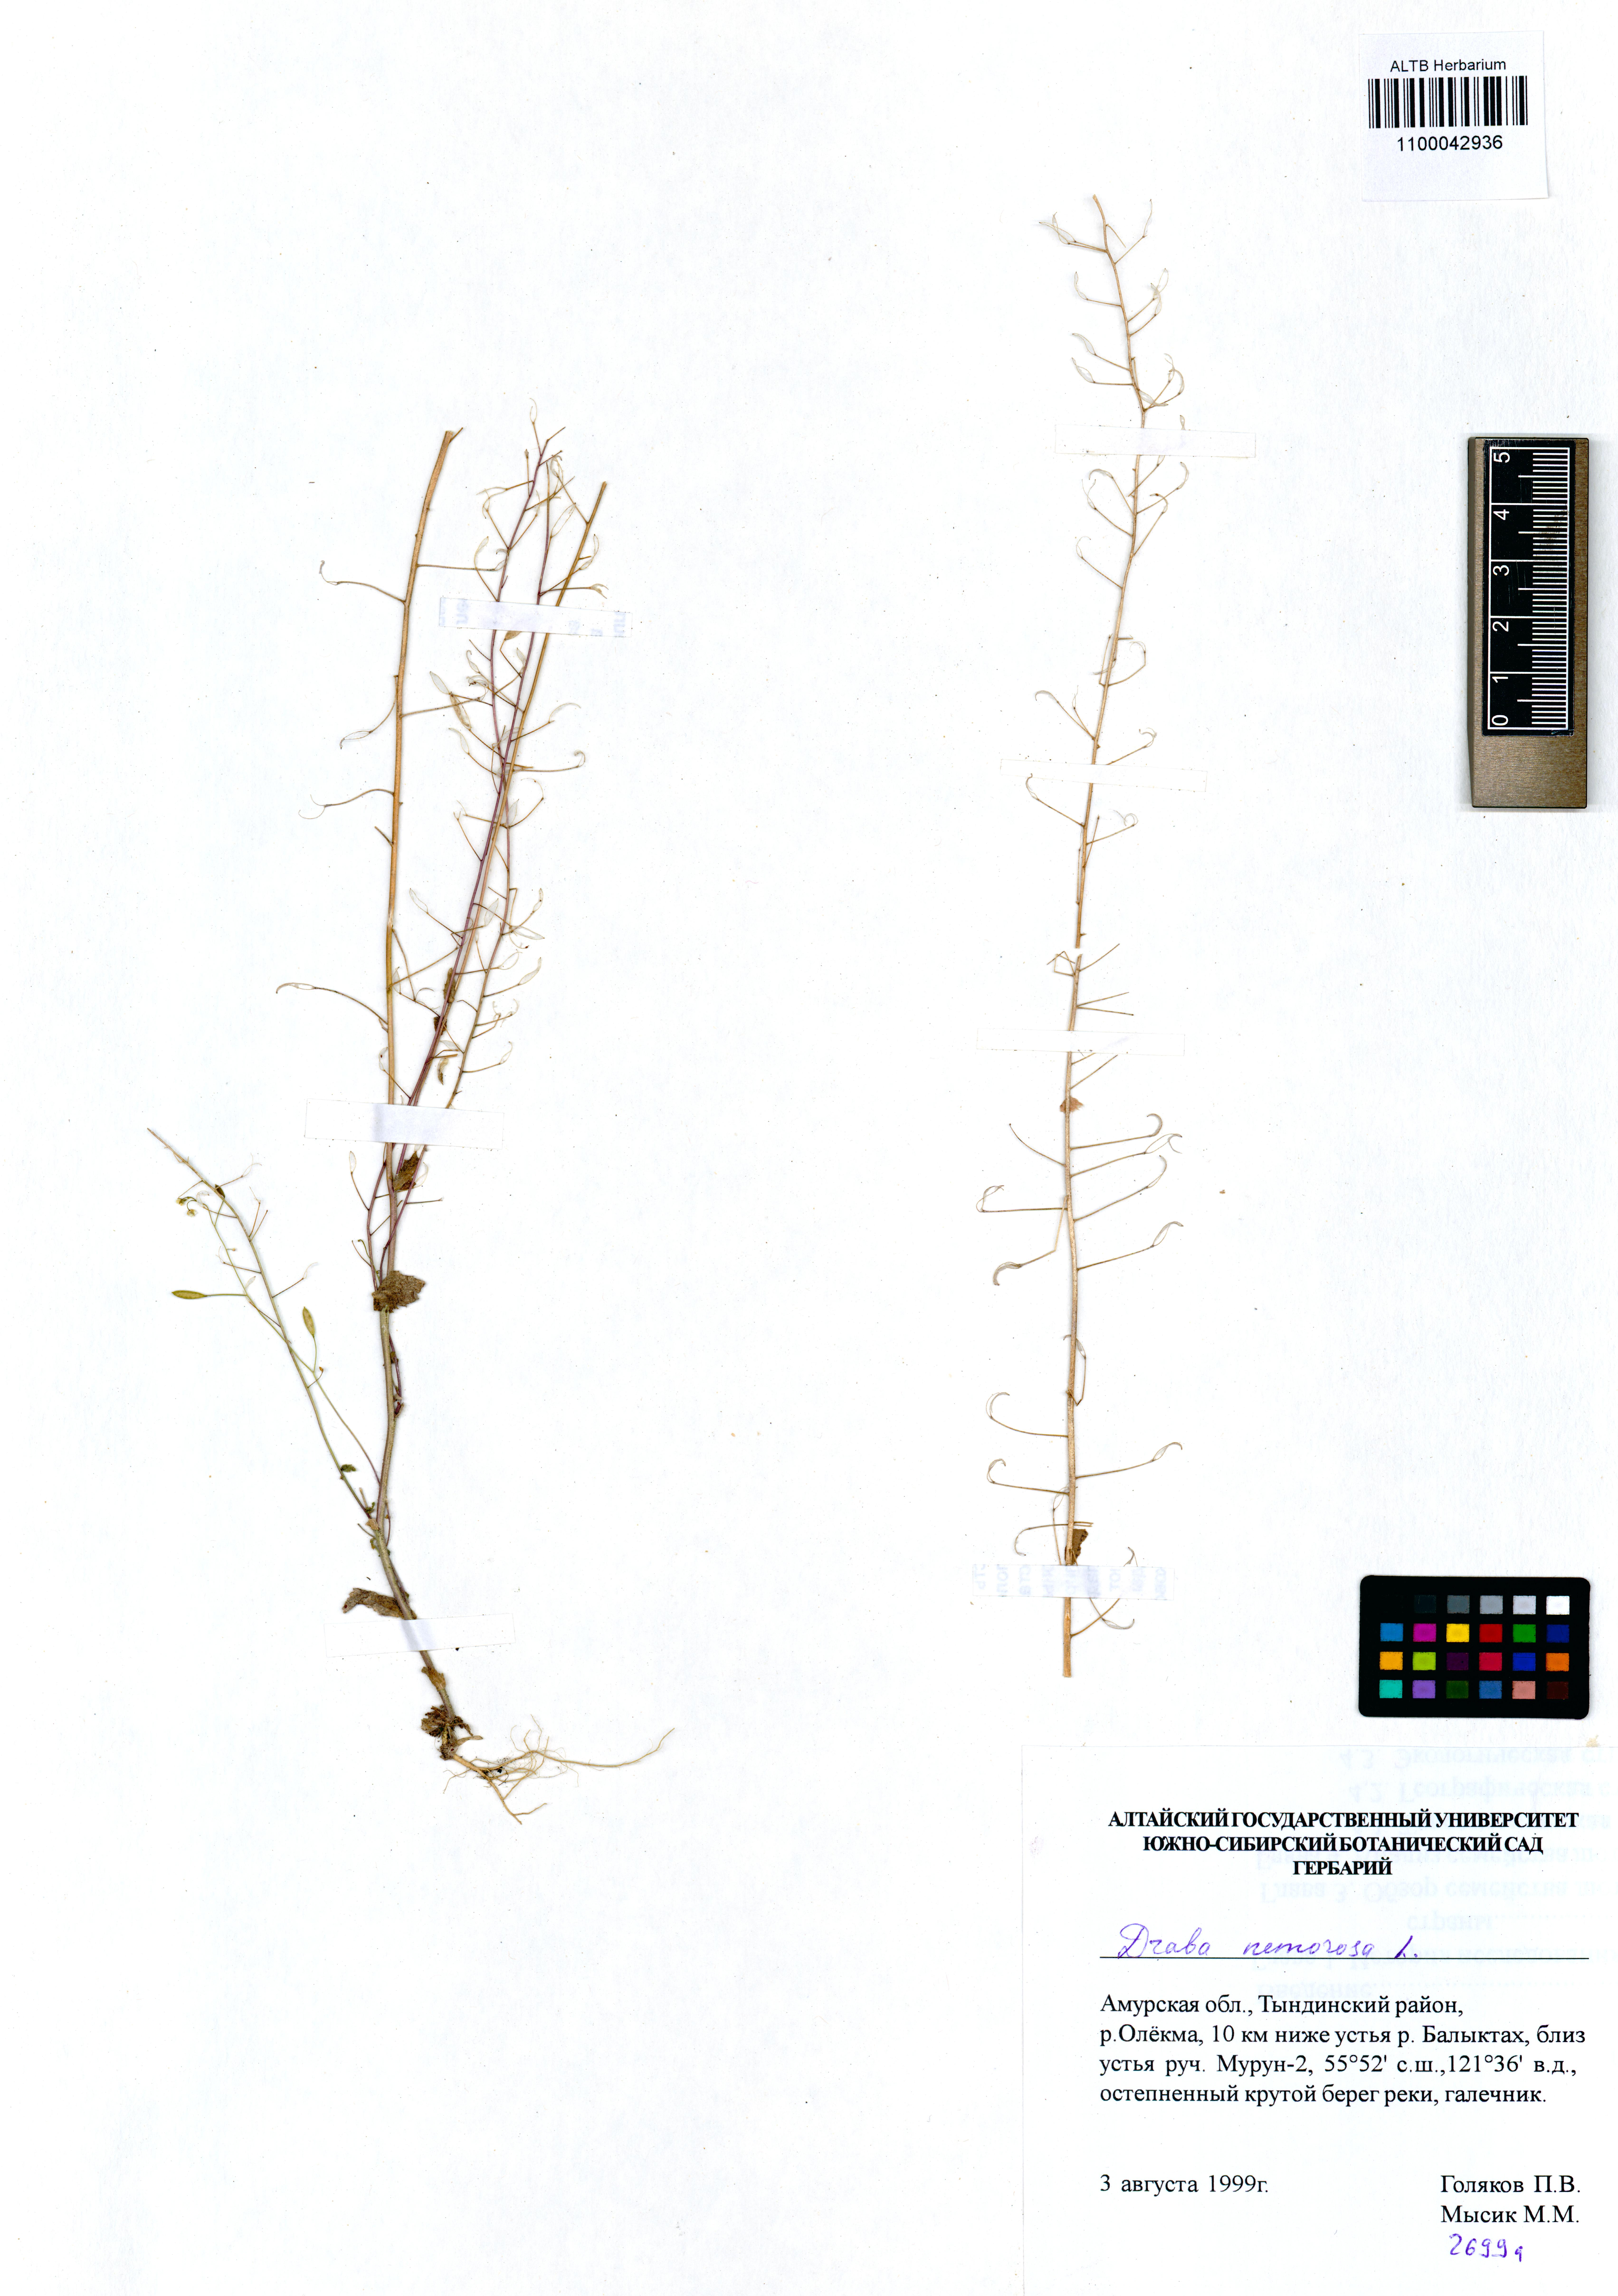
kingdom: Plantae
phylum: Tracheophyta
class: Magnoliopsida
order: Brassicales
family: Brassicaceae
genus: Draba
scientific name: Draba nemorosa
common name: Wood whitlow-grass
